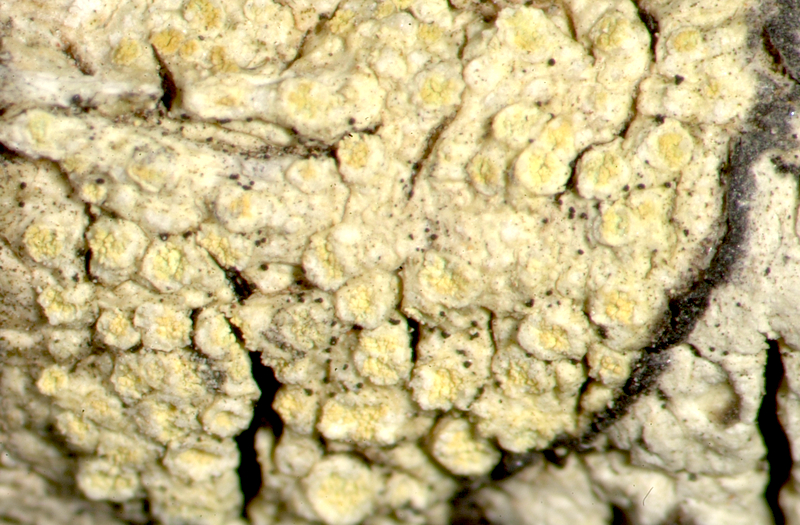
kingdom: Fungi
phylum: Ascomycota
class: Lecanoromycetes
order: Caliciales
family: Caliciaceae
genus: Buellia
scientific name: Buellia
